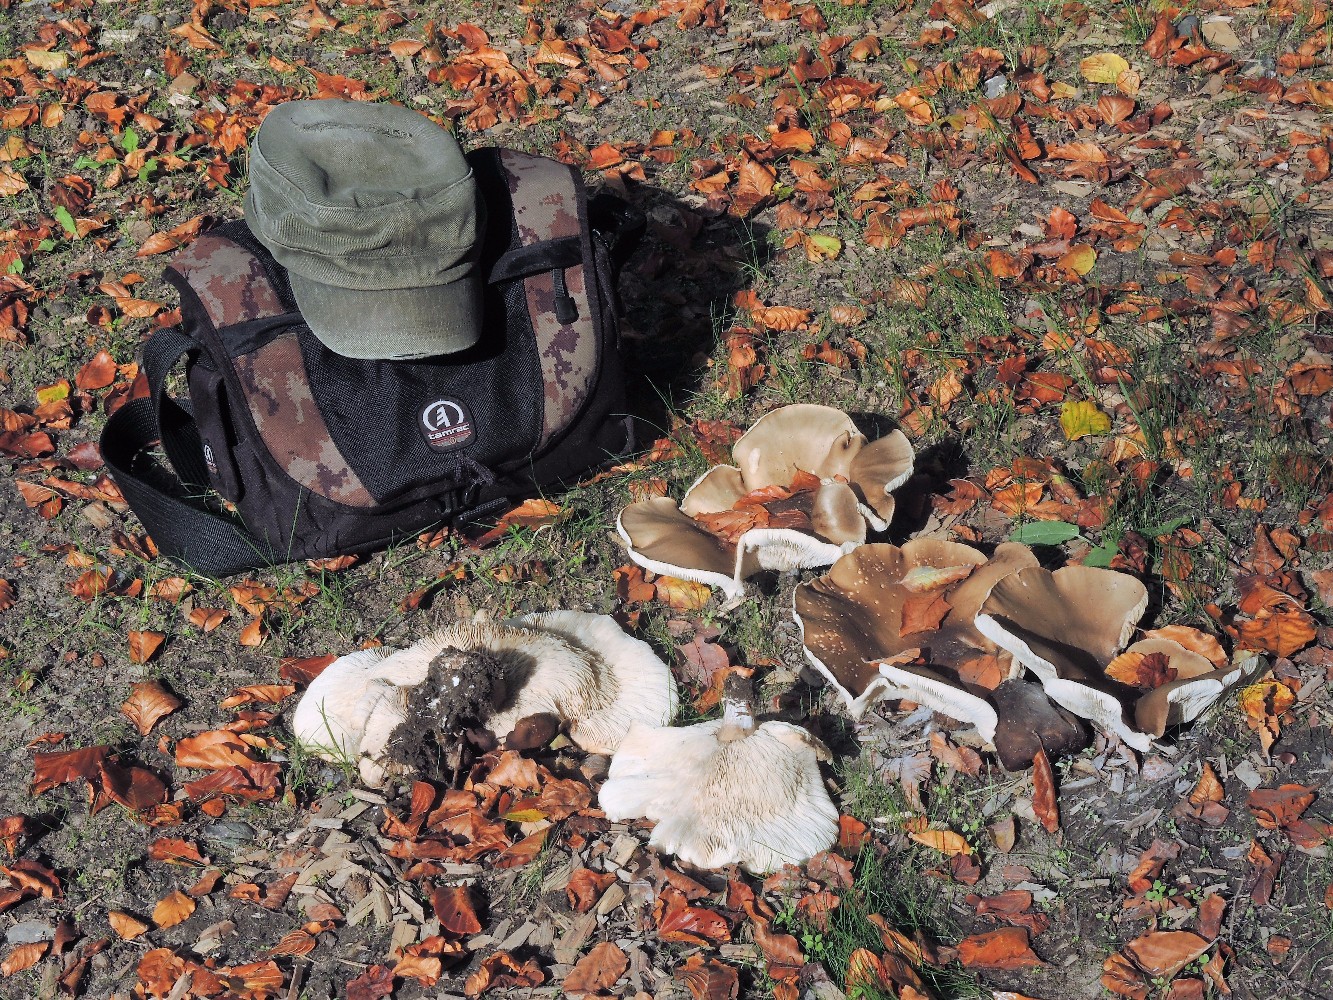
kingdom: Fungi
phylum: Basidiomycota
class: Agaricomycetes
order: Agaricales
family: Tricholomataceae
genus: Melanoleuca
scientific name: Melanoleuca
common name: munkehat
